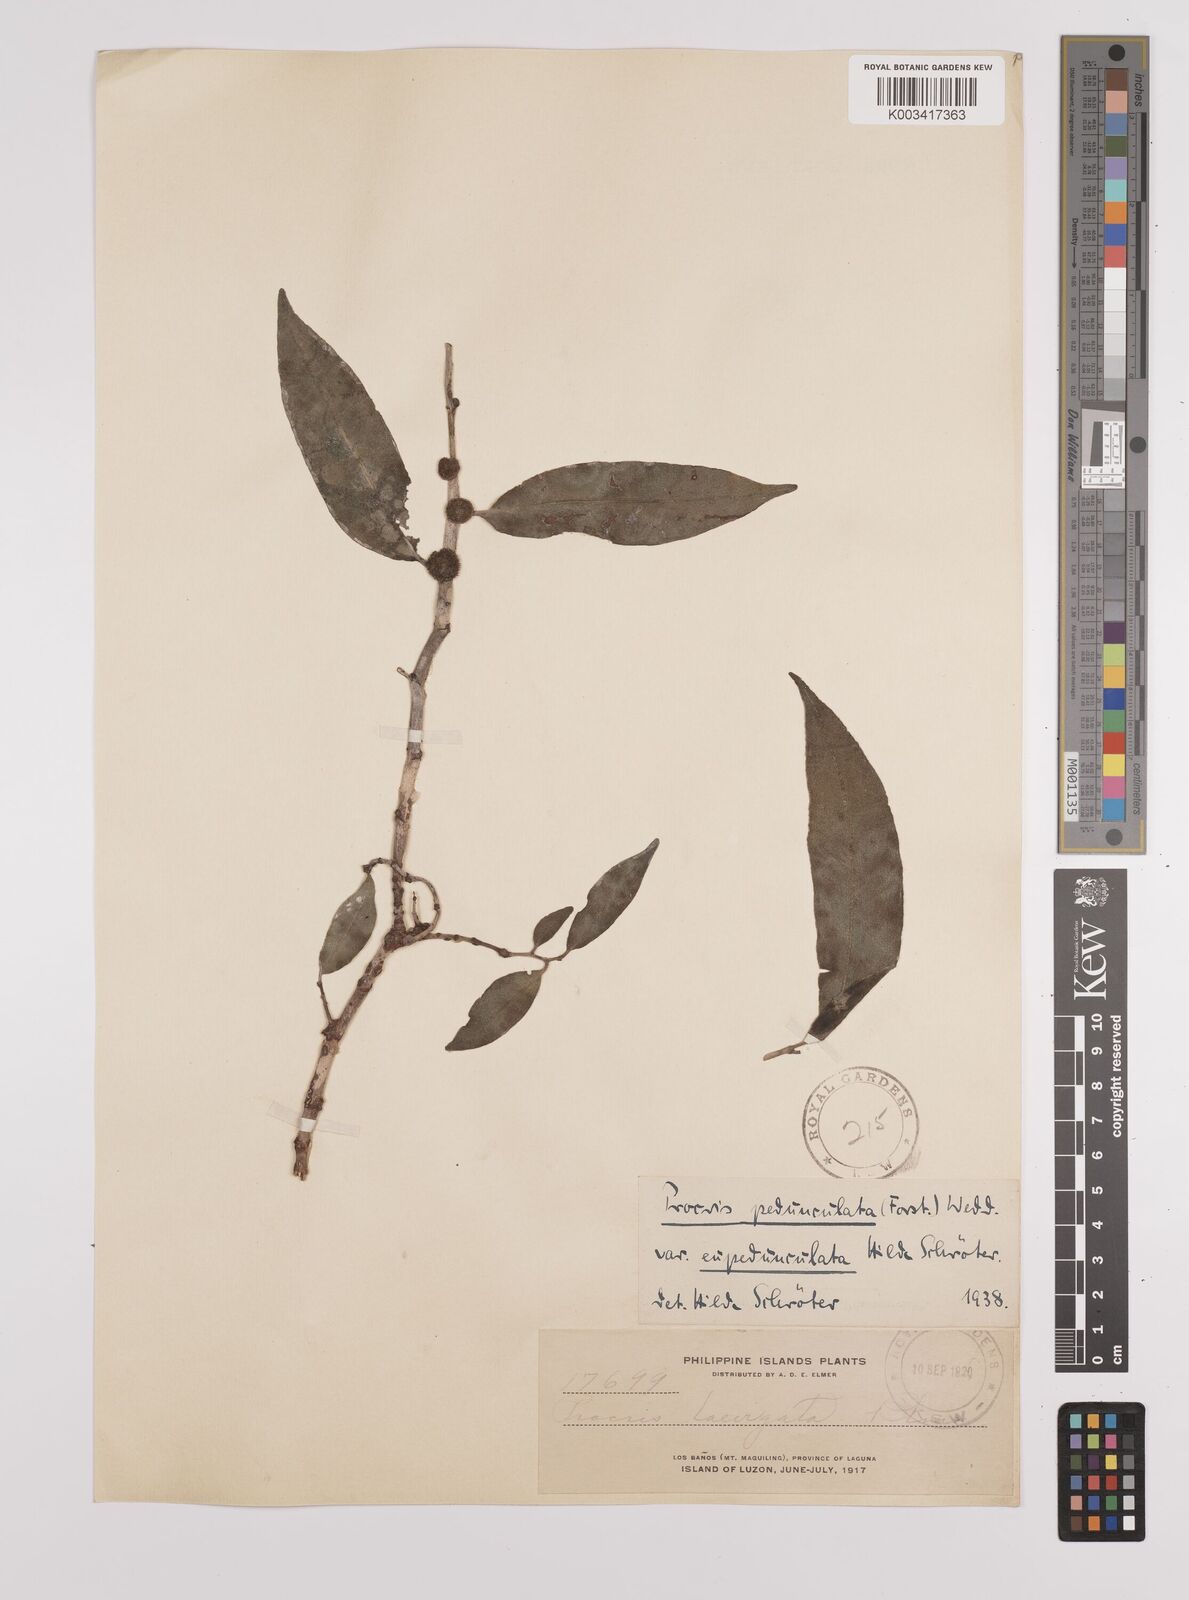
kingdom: Plantae
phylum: Tracheophyta
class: Magnoliopsida
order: Rosales
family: Urticaceae
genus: Procris
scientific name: Procris pedunculata
